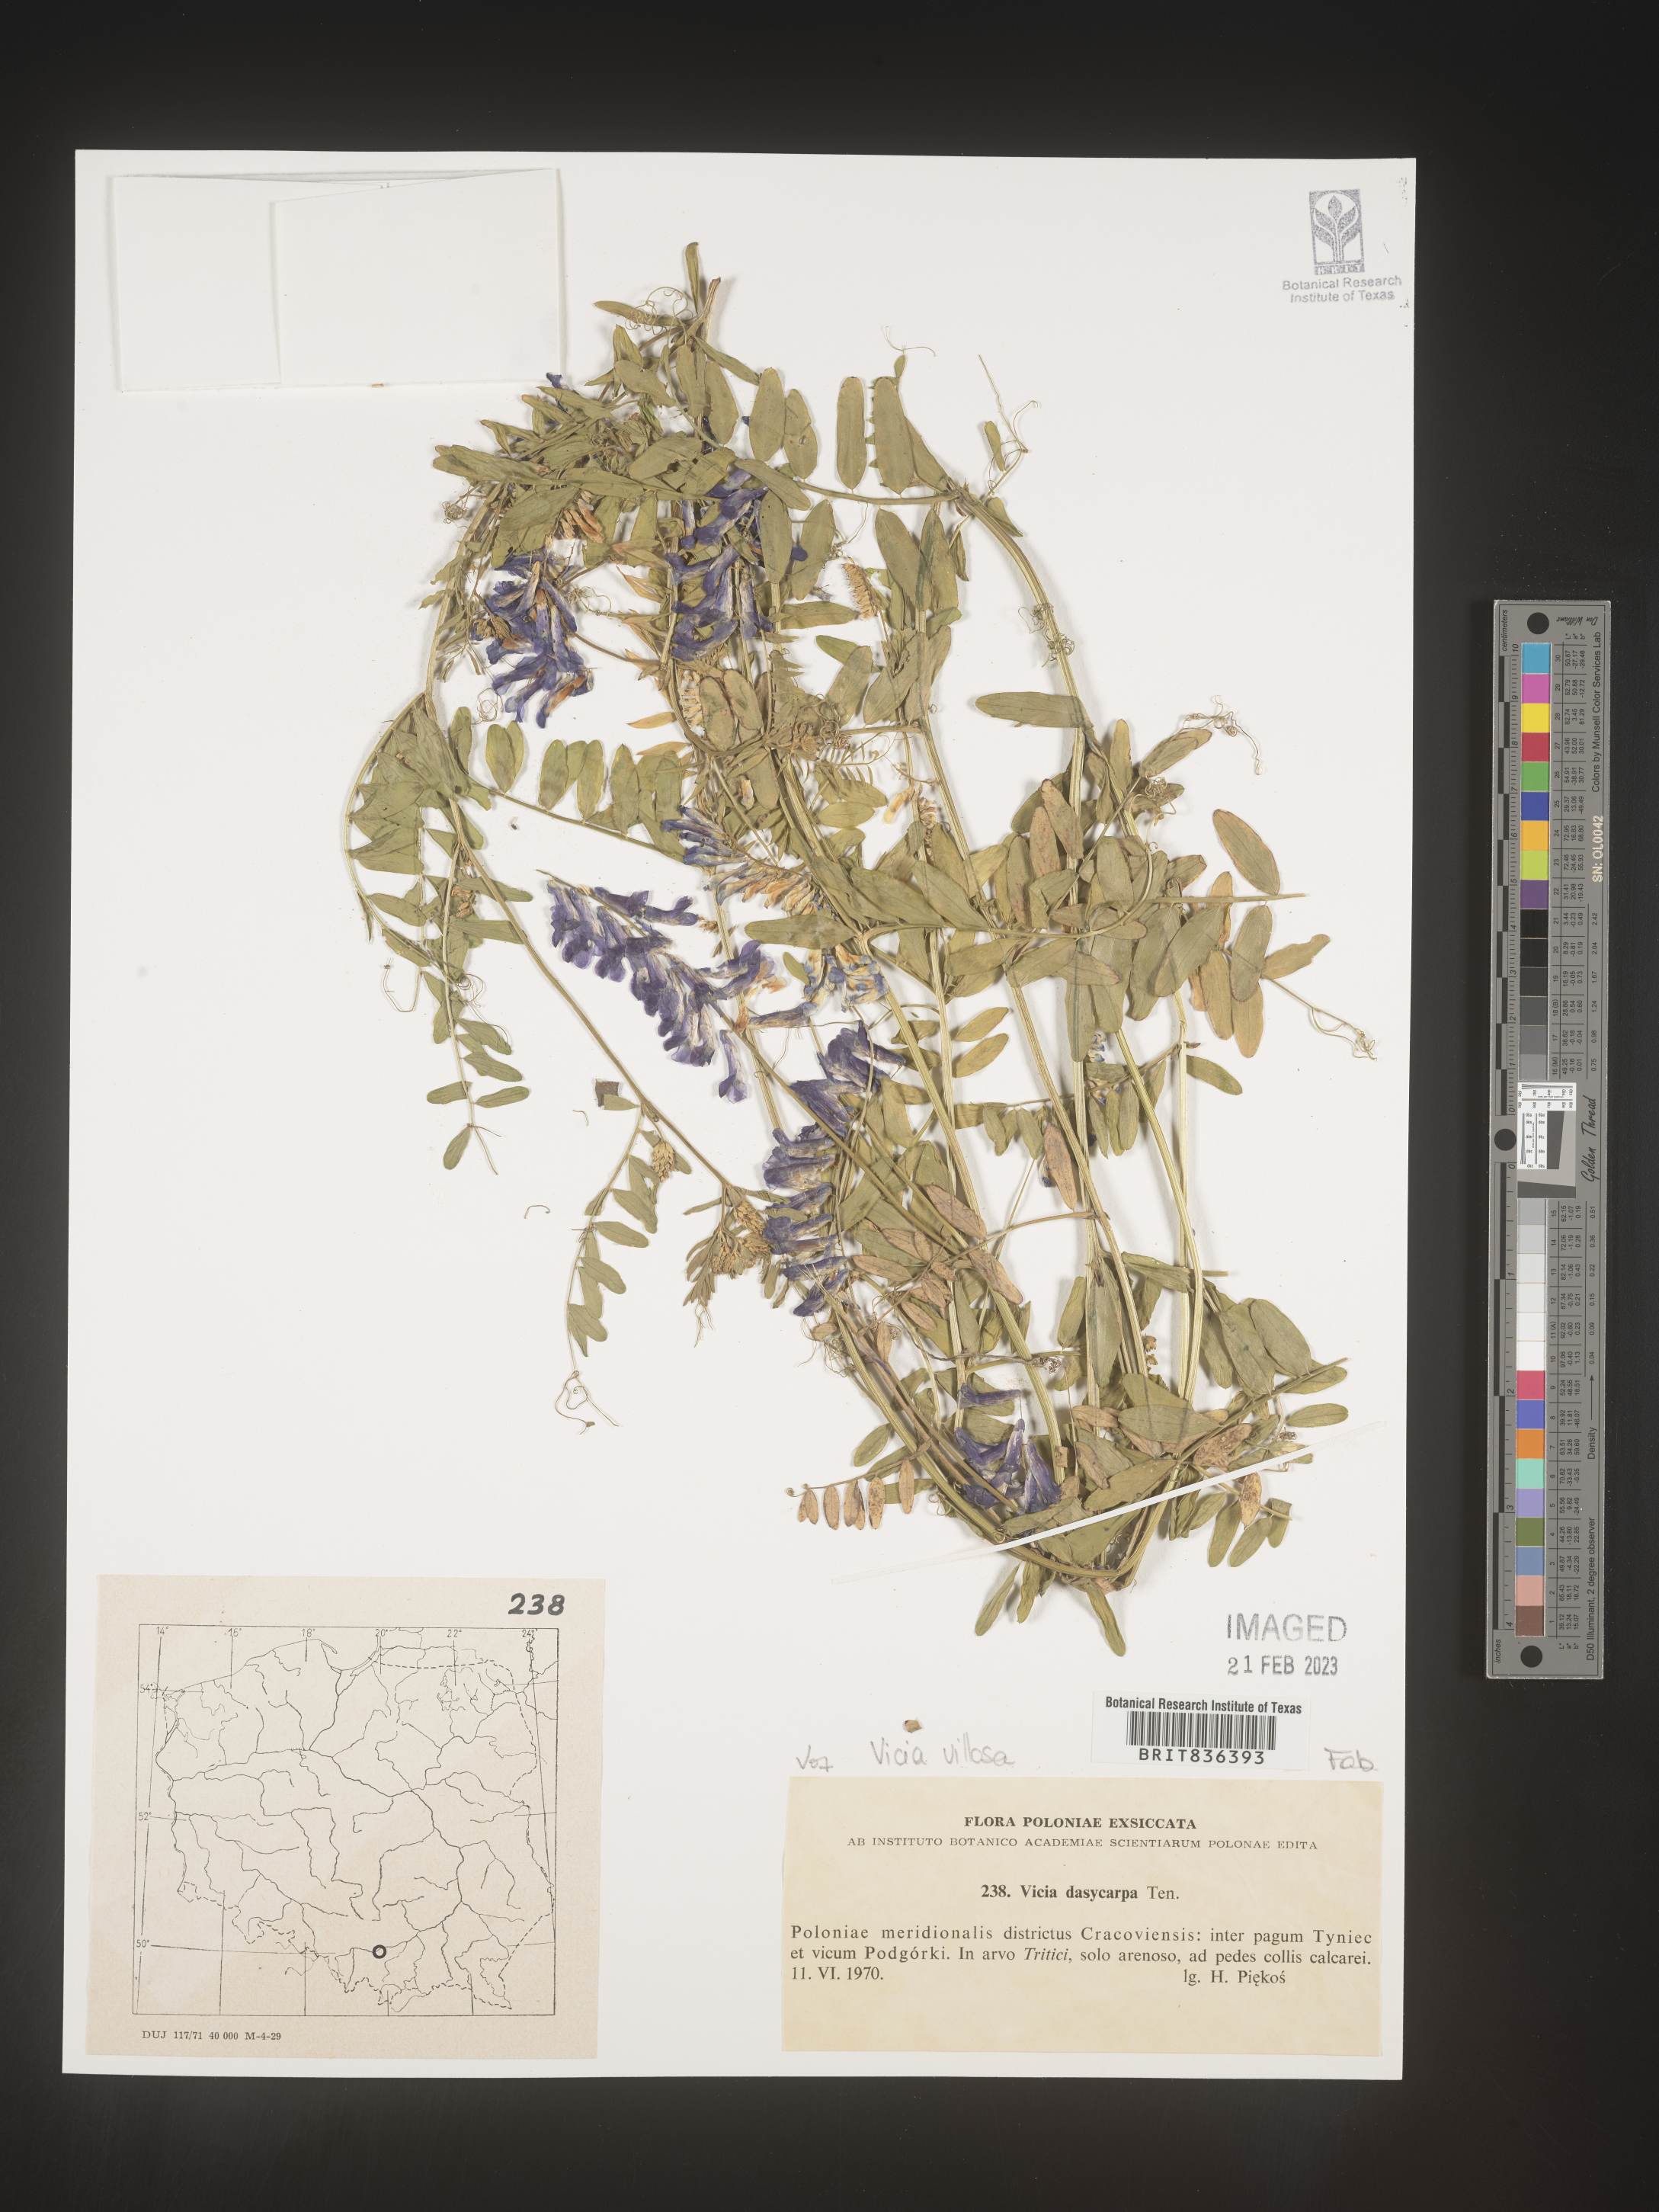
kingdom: Plantae
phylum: Tracheophyta
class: Magnoliopsida
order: Fabales
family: Fabaceae
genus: Vicia
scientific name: Vicia
